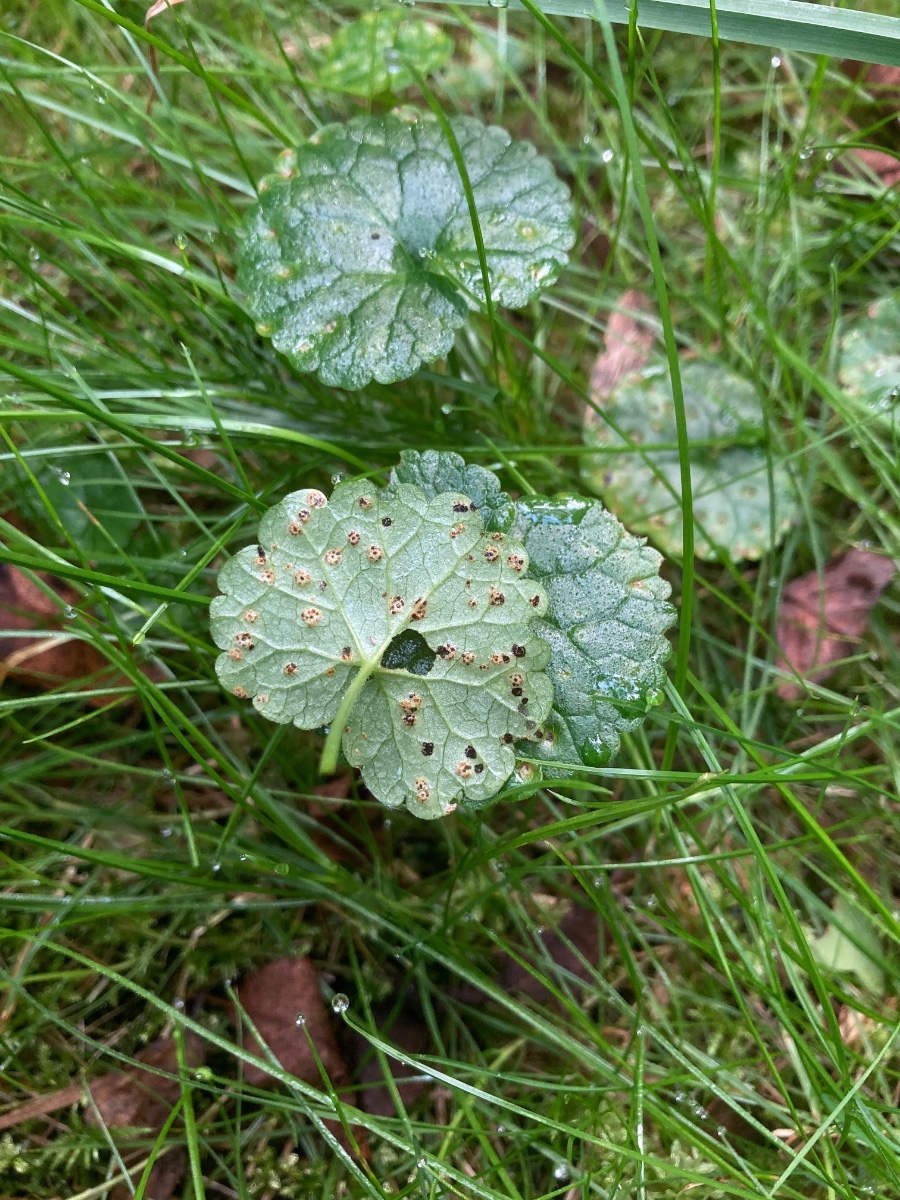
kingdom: Fungi
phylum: Basidiomycota
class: Pucciniomycetes
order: Pucciniales
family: Pucciniaceae
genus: Puccinia
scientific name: Puccinia glechomatis
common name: Ground ivy rust
